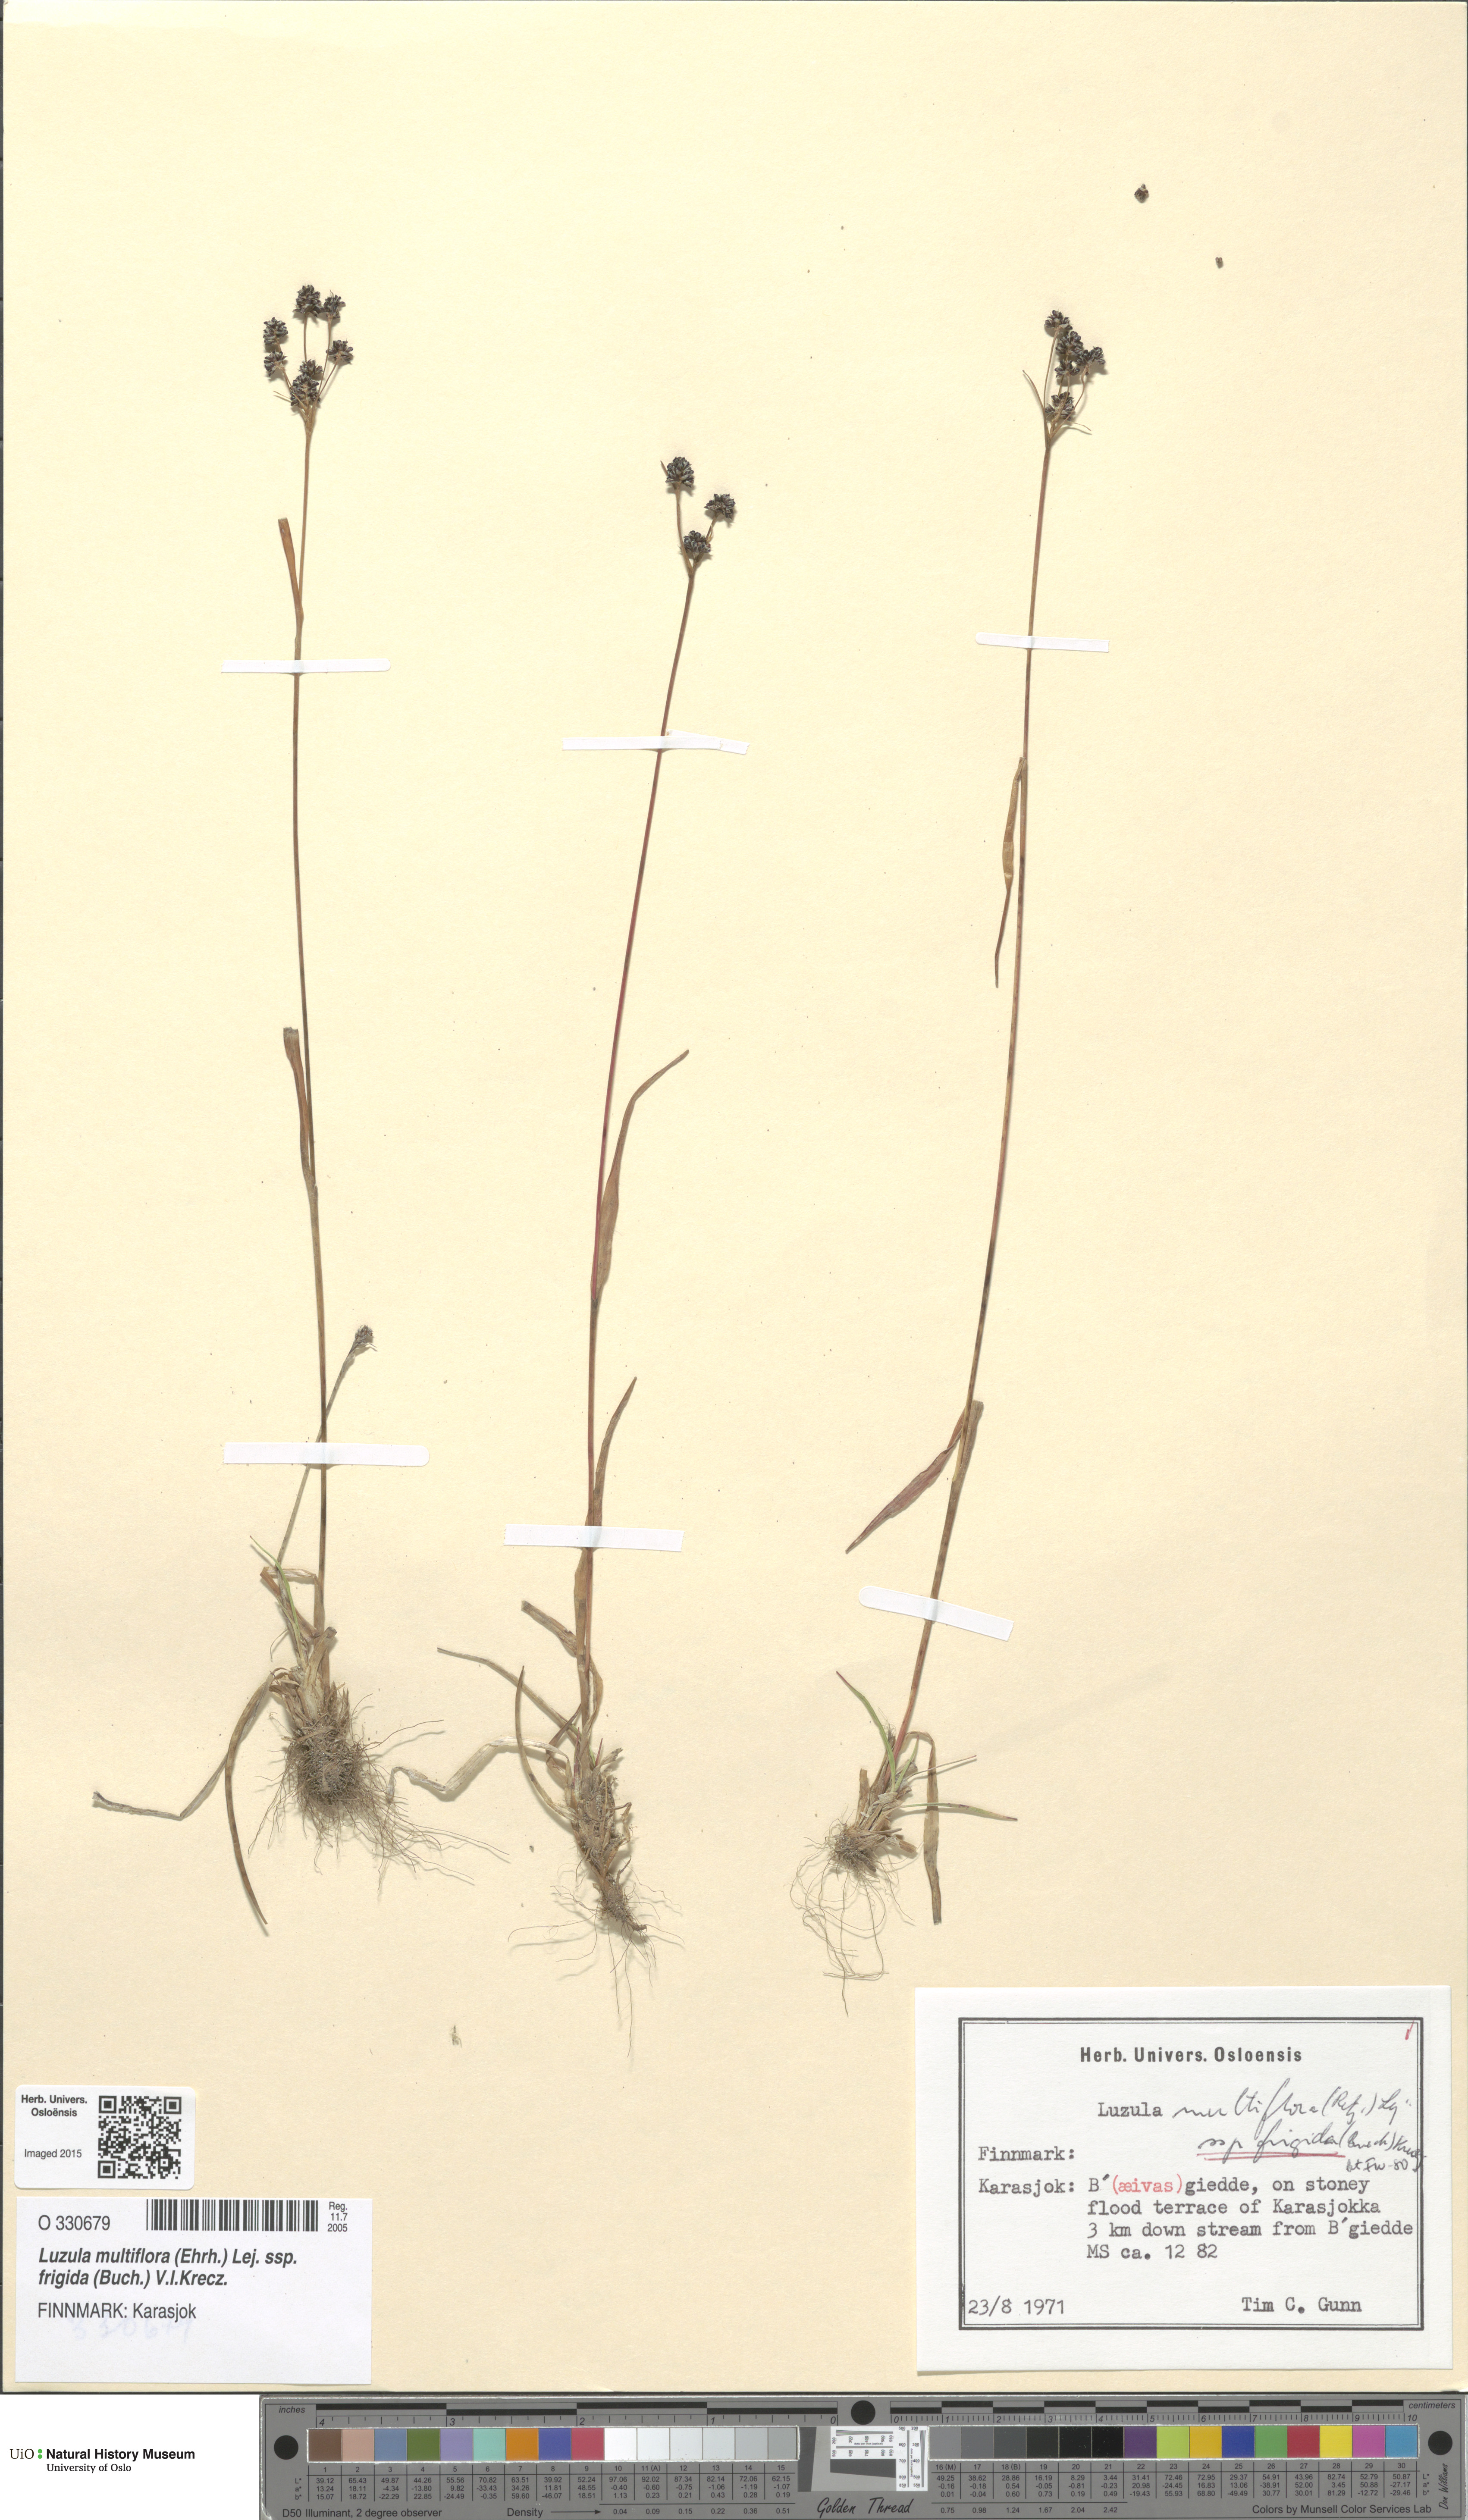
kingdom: Plantae
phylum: Tracheophyta
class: Liliopsida
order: Poales
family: Juncaceae
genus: Luzula
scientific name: Luzula multiflora
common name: Heath wood-rush
